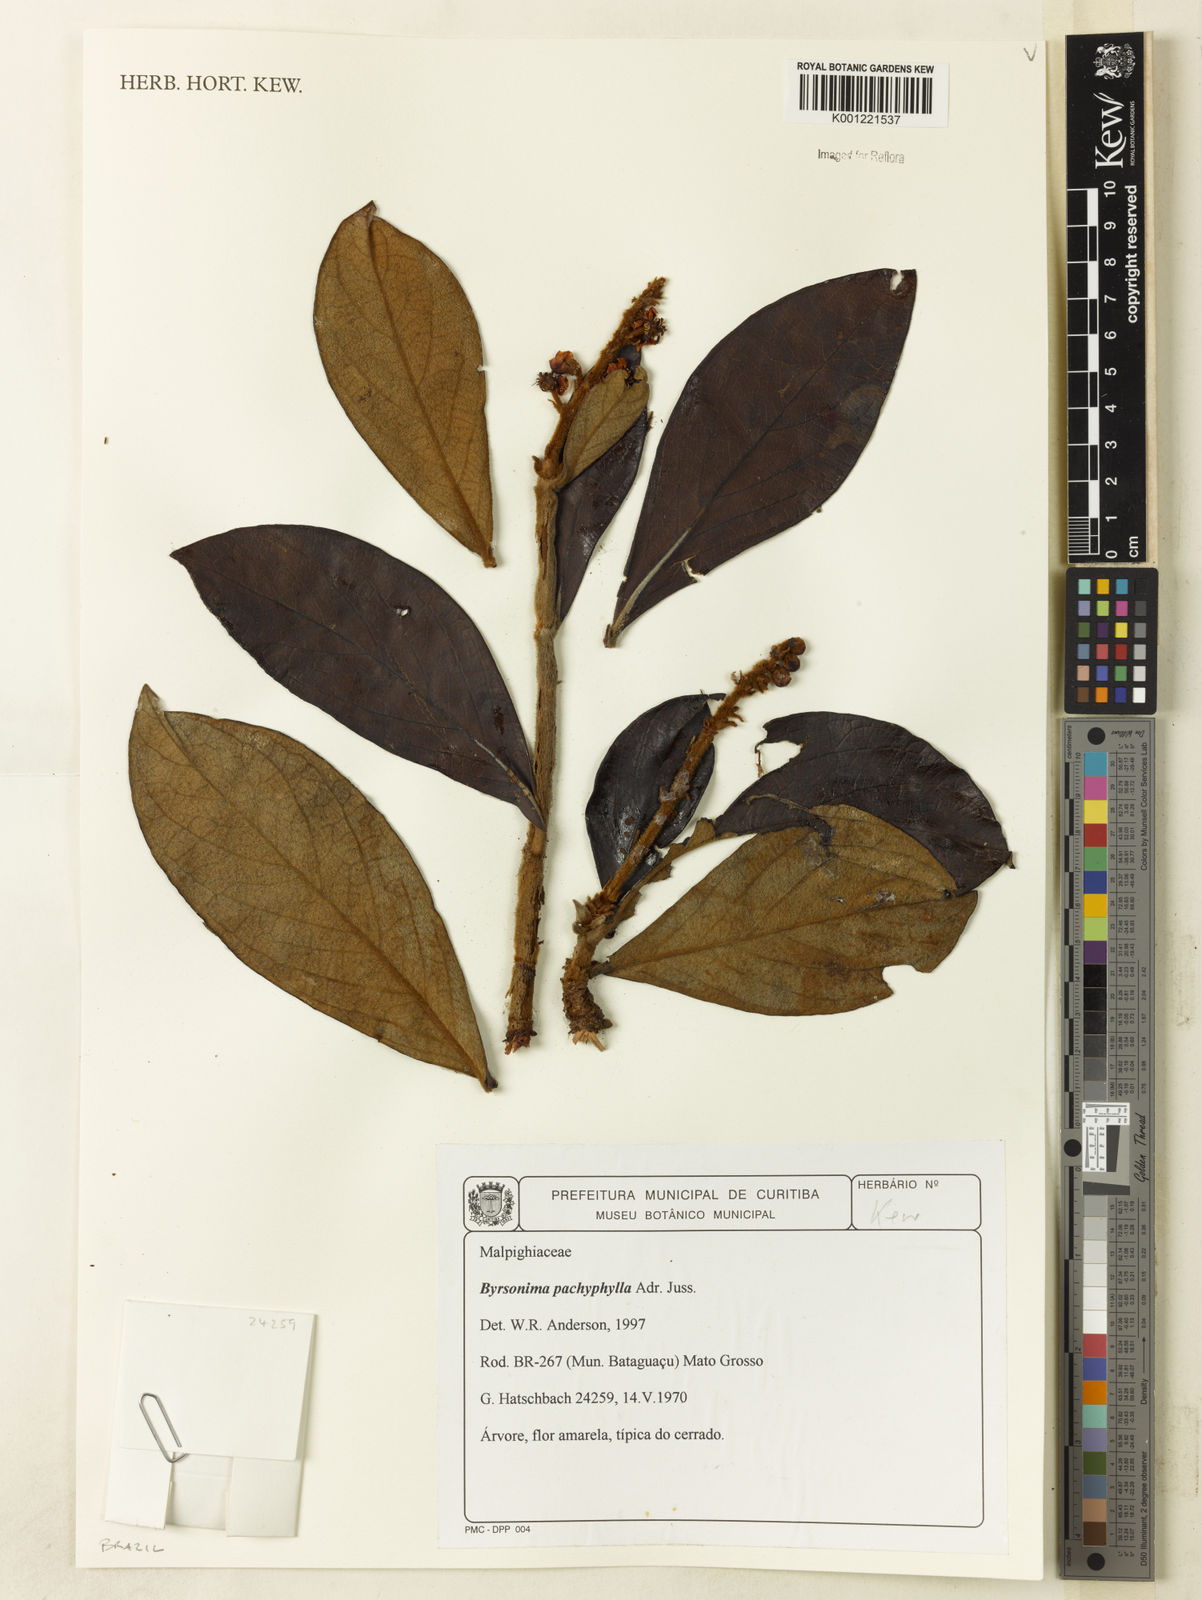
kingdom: Plantae
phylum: Tracheophyta
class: Magnoliopsida
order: Malpighiales
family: Malpighiaceae
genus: Byrsonima
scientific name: Byrsonima pachyphylla
